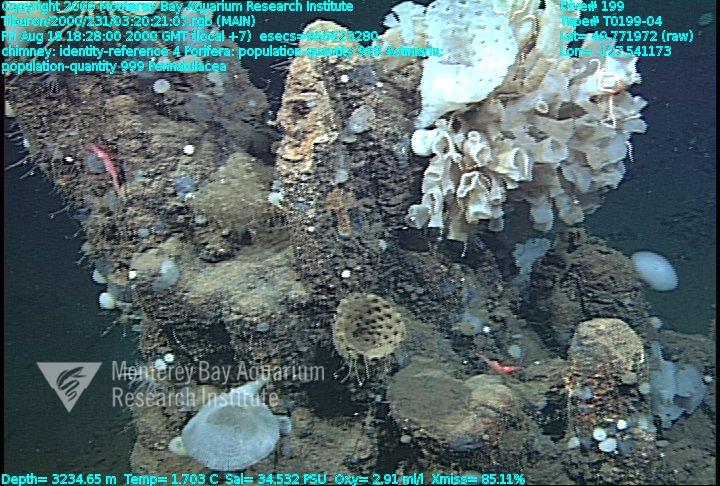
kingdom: Animalia
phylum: Porifera
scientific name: Porifera
